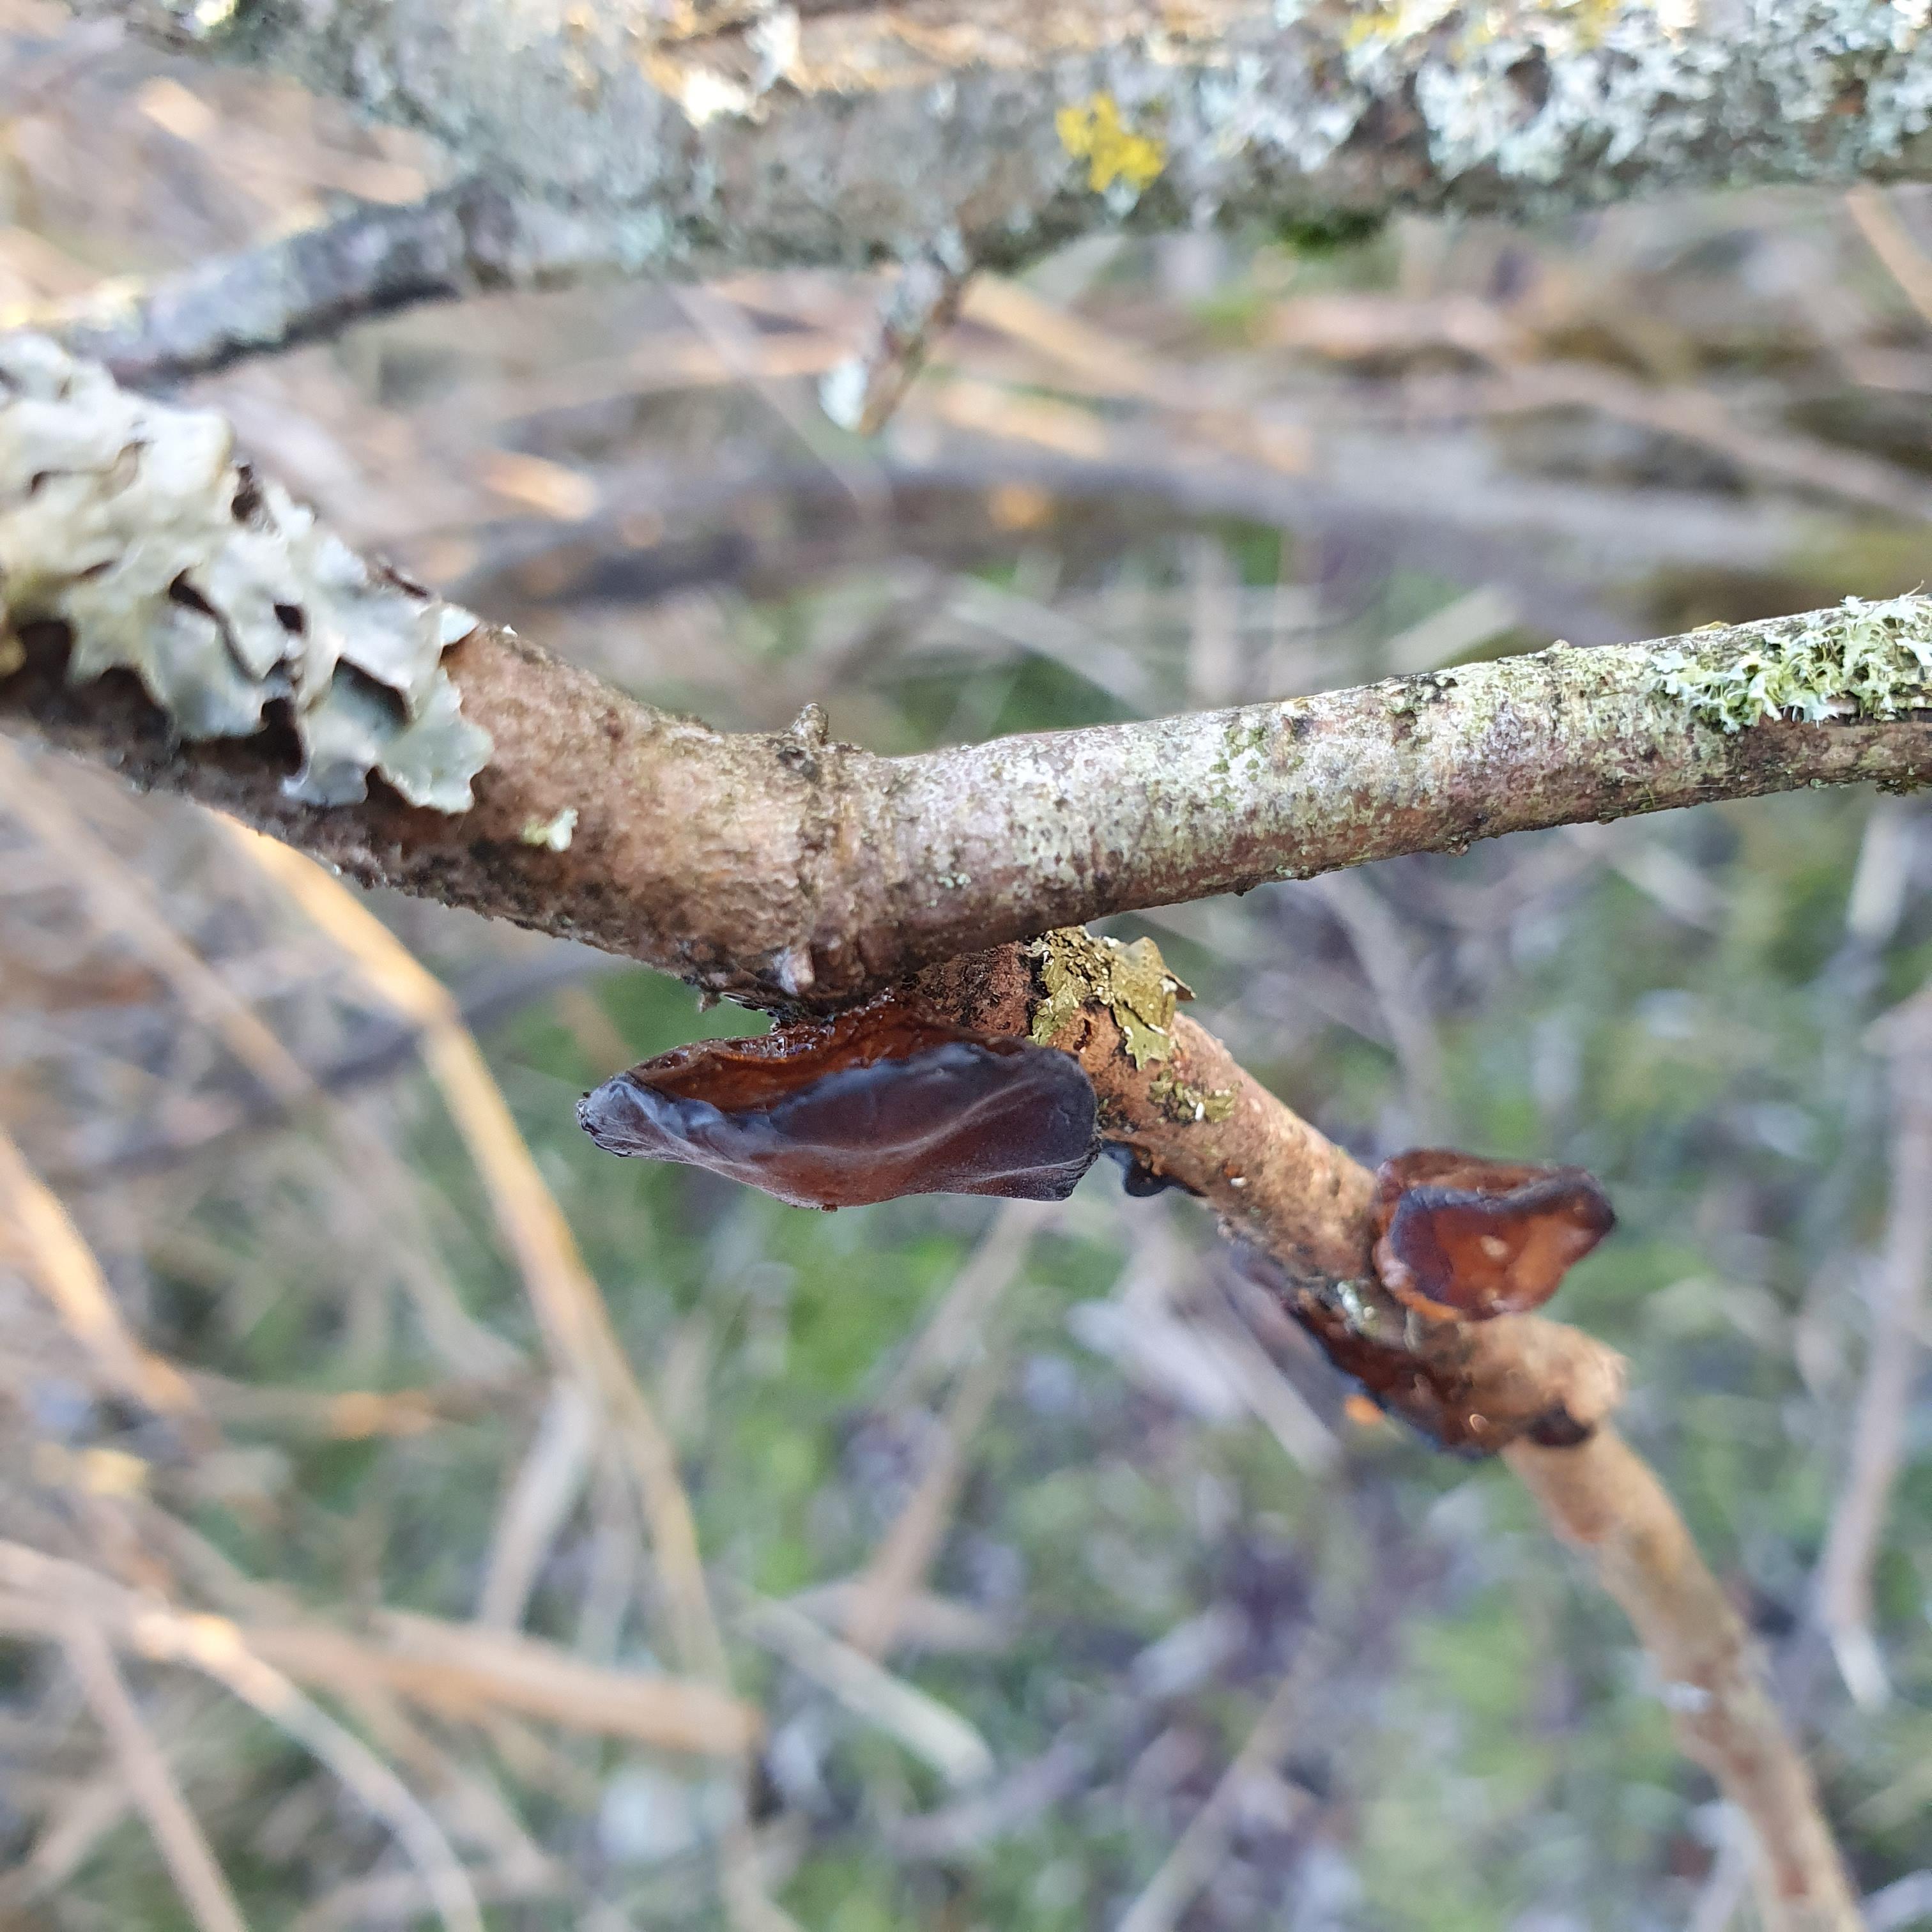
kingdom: Fungi
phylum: Basidiomycota
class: Agaricomycetes
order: Auriculariales
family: Auriculariaceae
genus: Exidia
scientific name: Exidia recisa
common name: pile-bævretop
